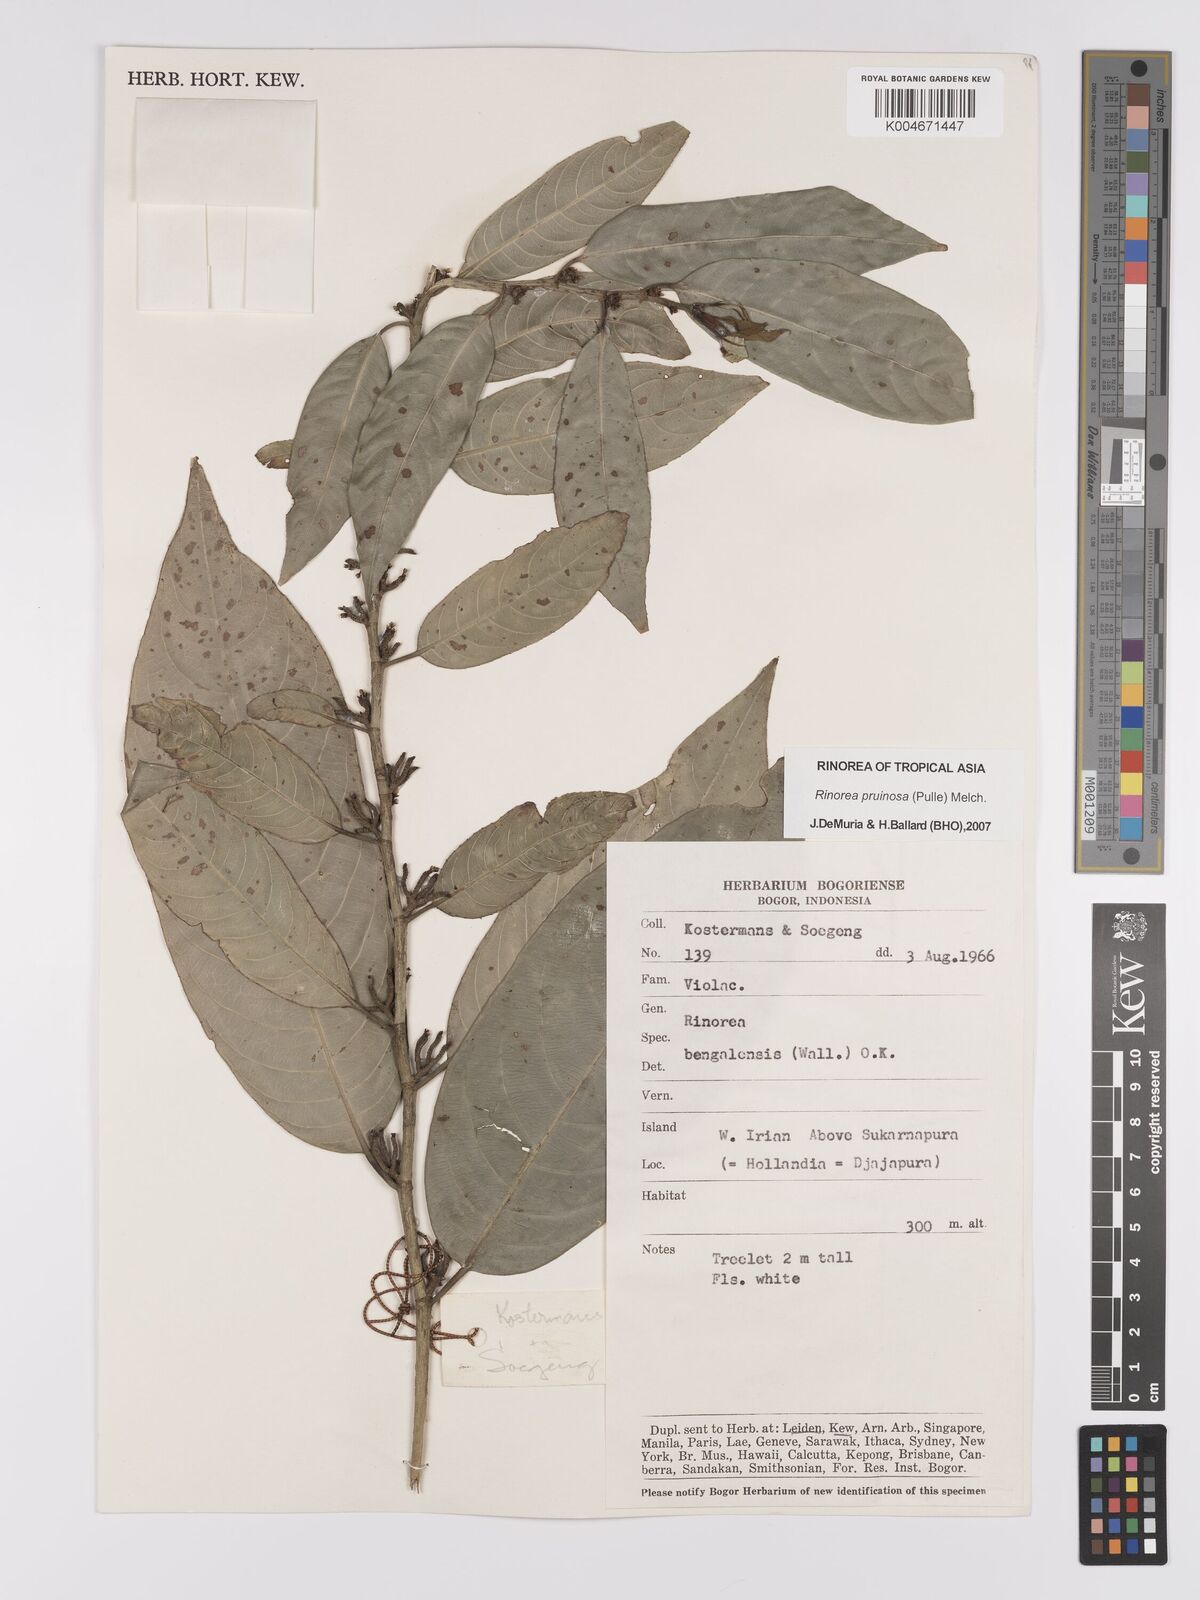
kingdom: Plantae
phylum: Tracheophyta
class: Magnoliopsida
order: Malpighiales
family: Violaceae
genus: Rinorea
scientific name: Rinorea pruinosa
